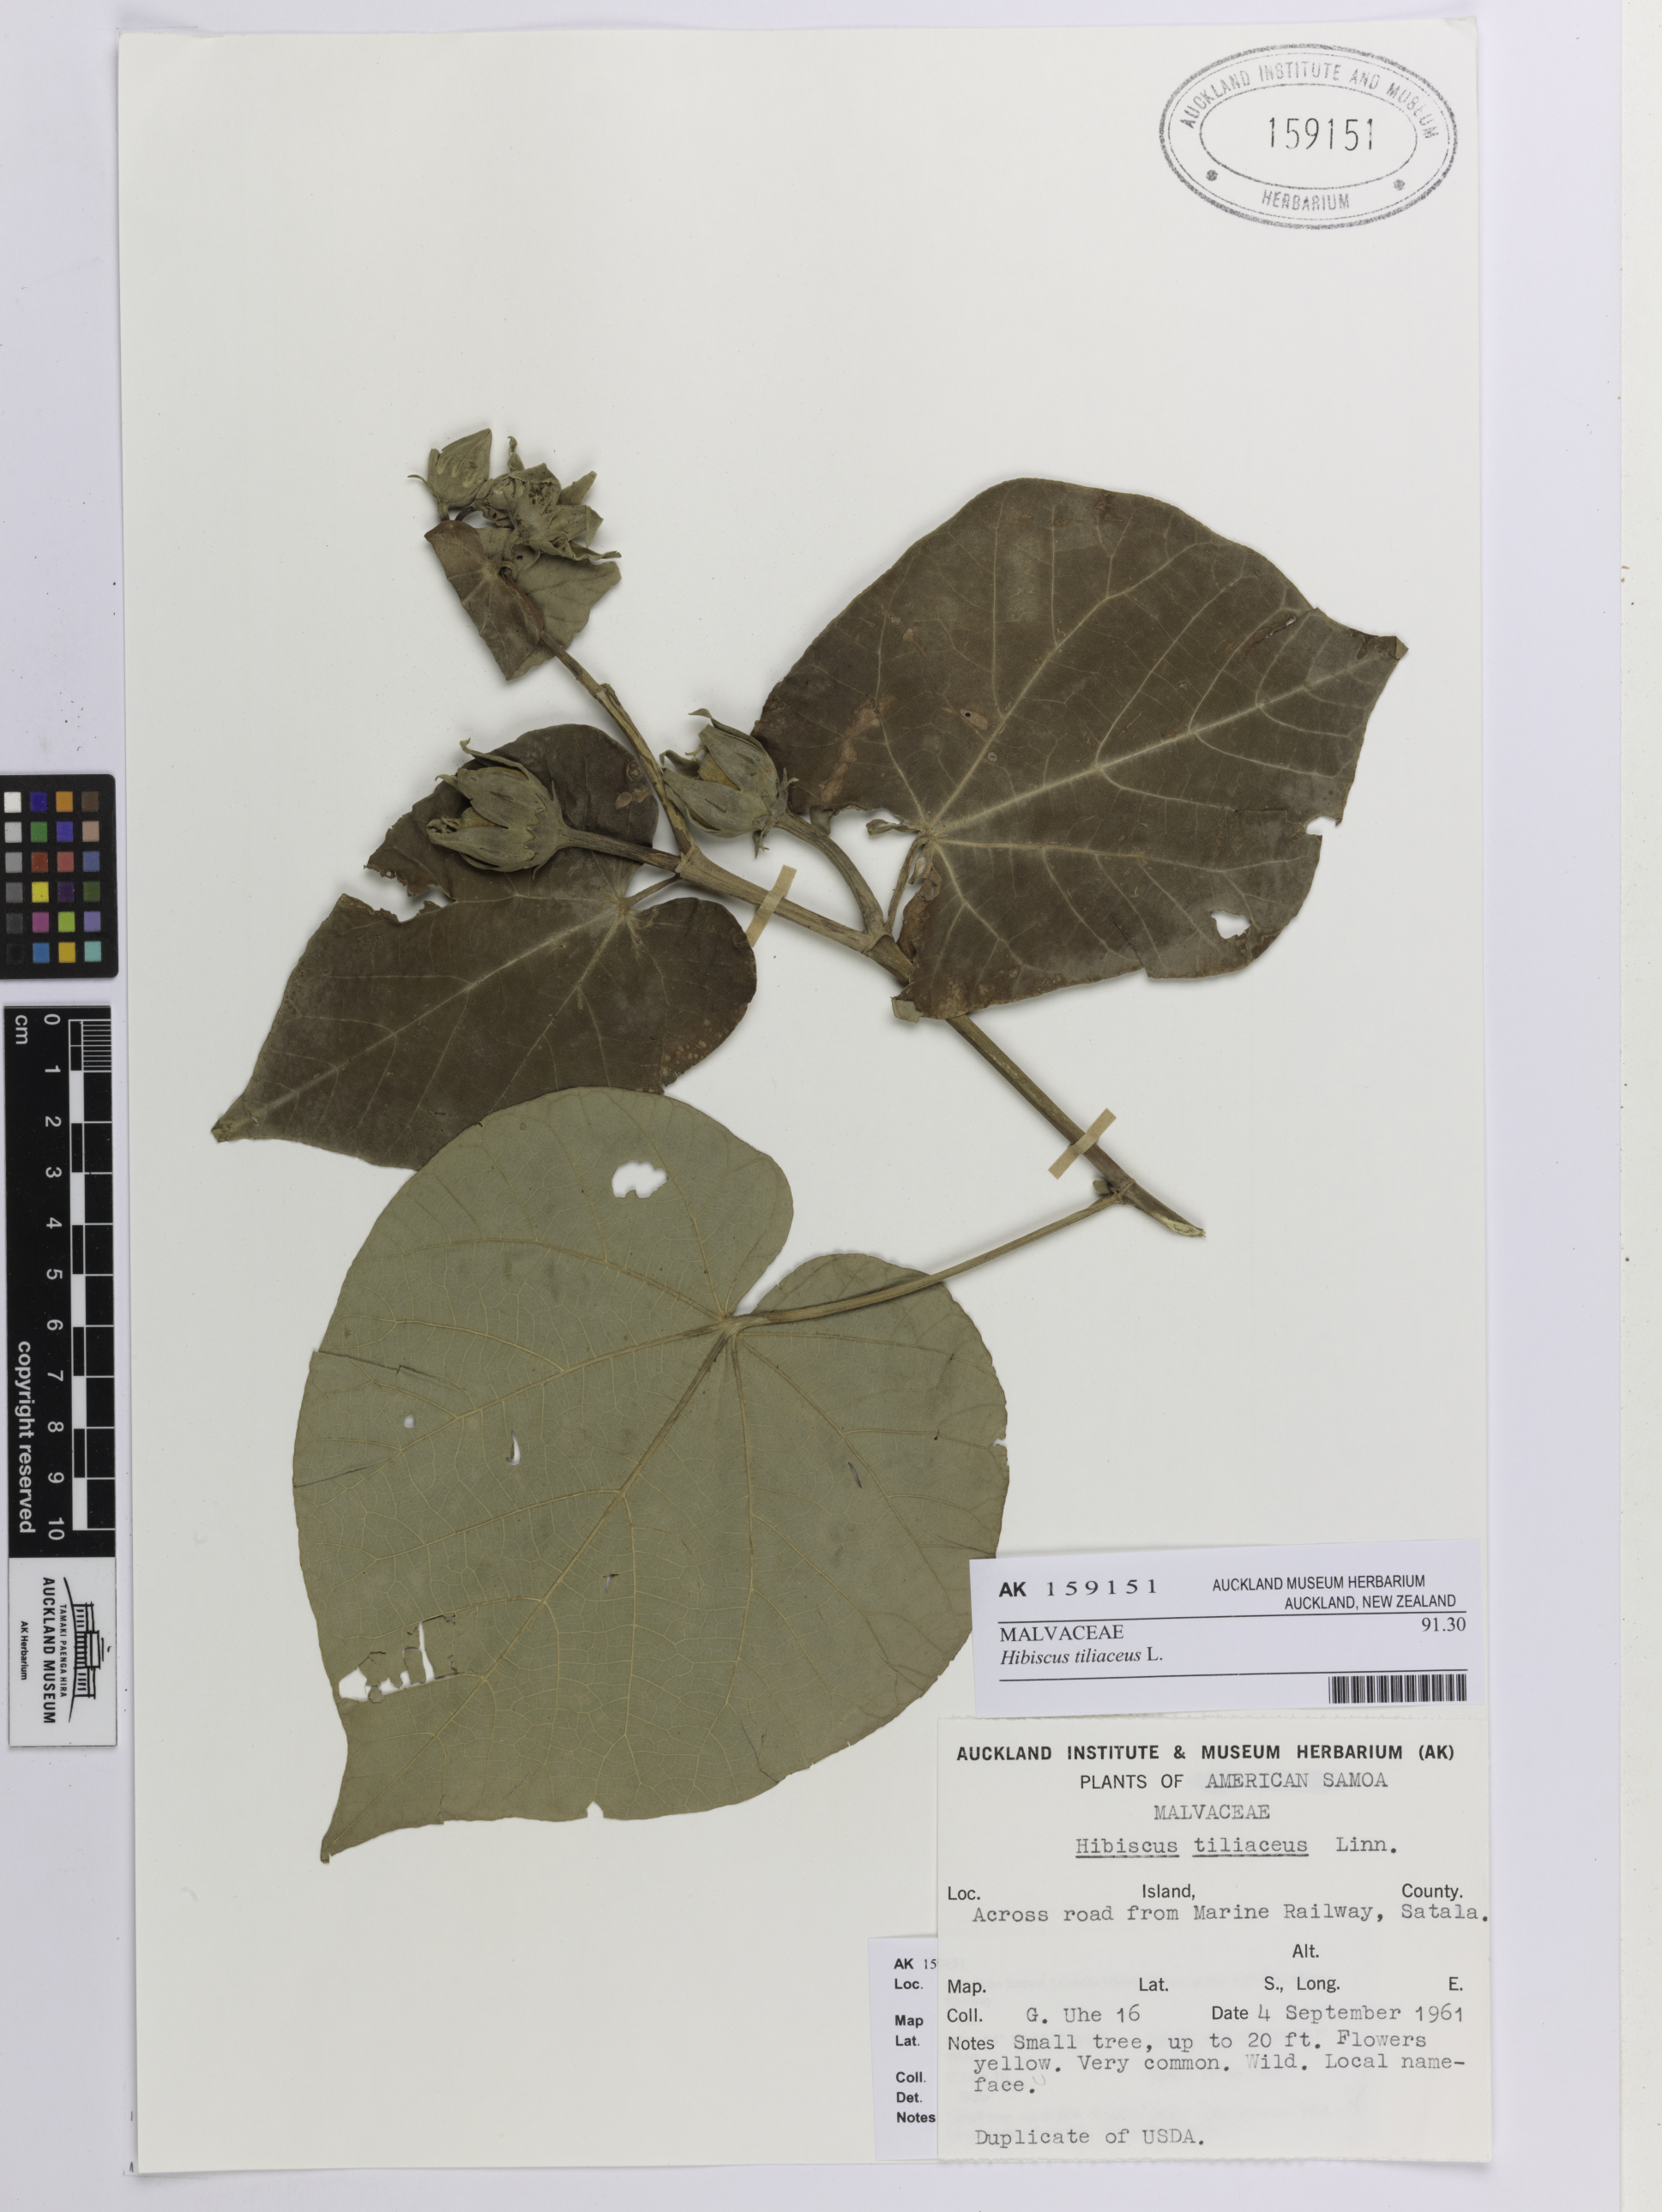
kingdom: Plantae
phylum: Tracheophyta
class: Magnoliopsida
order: Malvales
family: Malvaceae
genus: Talipariti
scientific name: Talipariti tiliaceum
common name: Sea hibiscus
